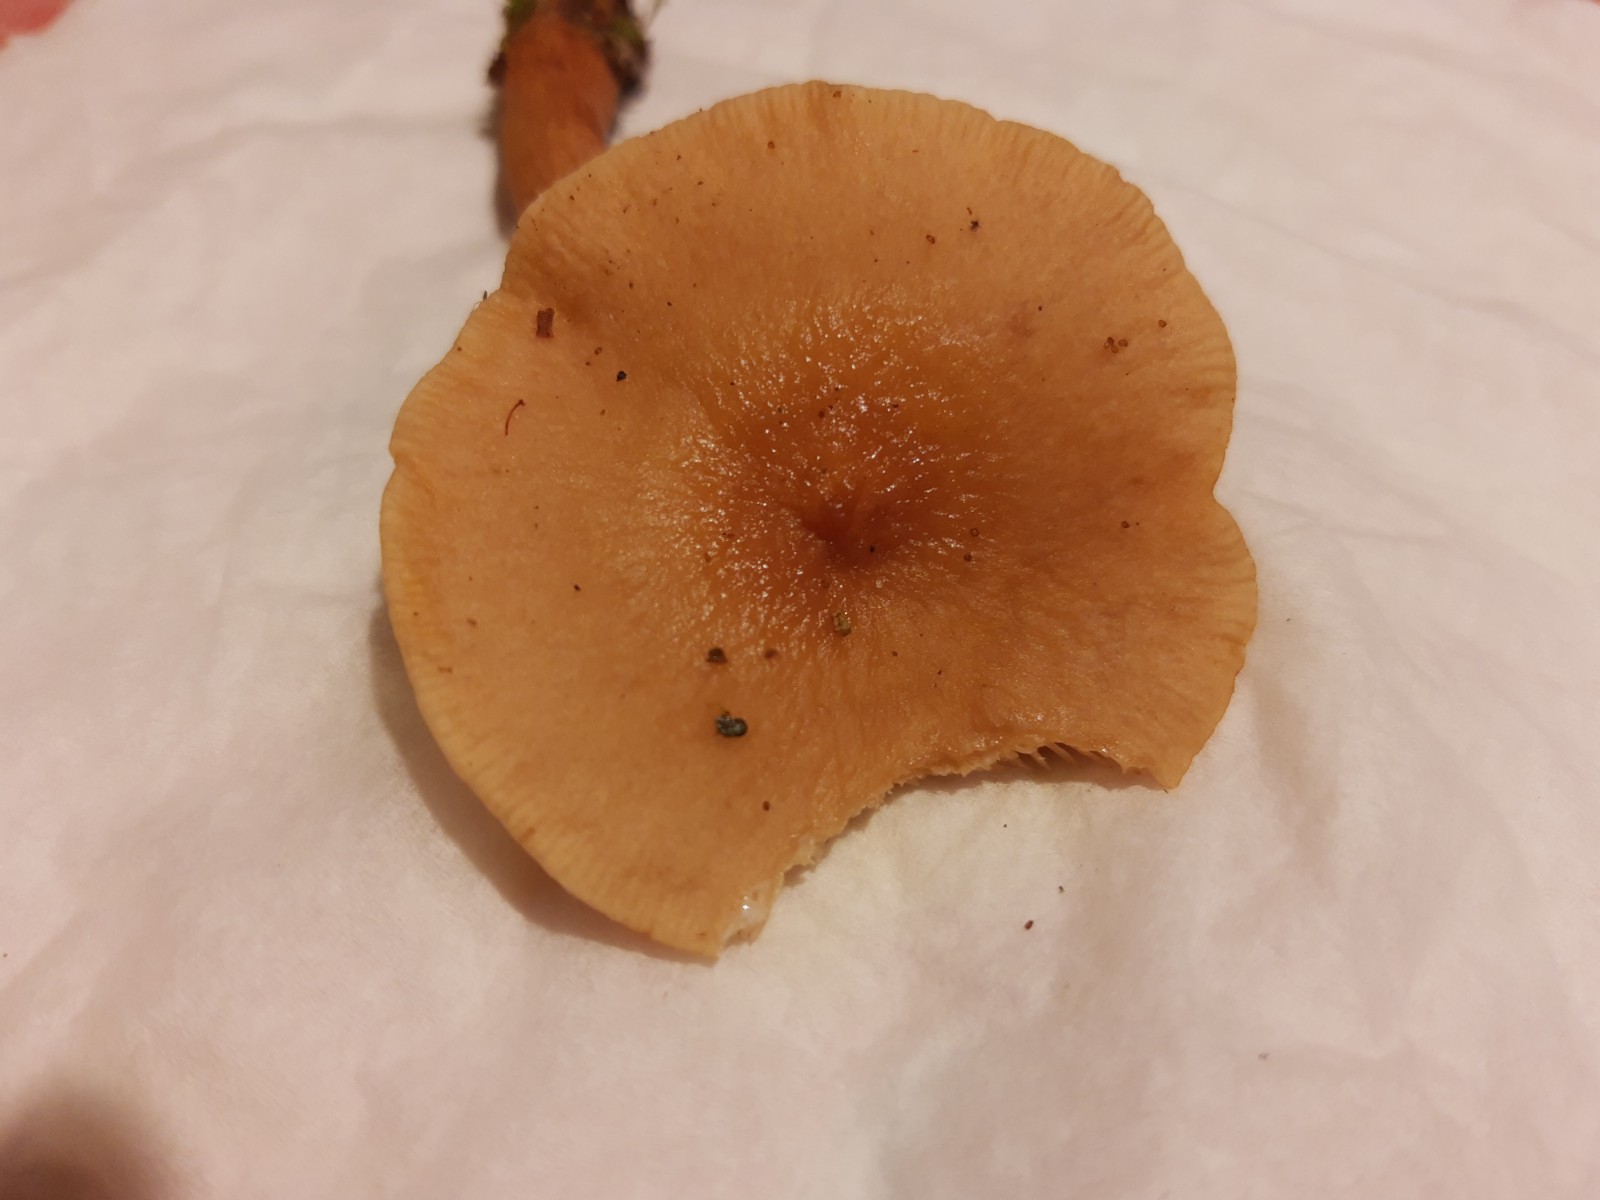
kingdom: Fungi
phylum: Basidiomycota
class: Agaricomycetes
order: Russulales
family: Russulaceae
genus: Lactarius
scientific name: Lactarius tabidus
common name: rynket mælkehat
